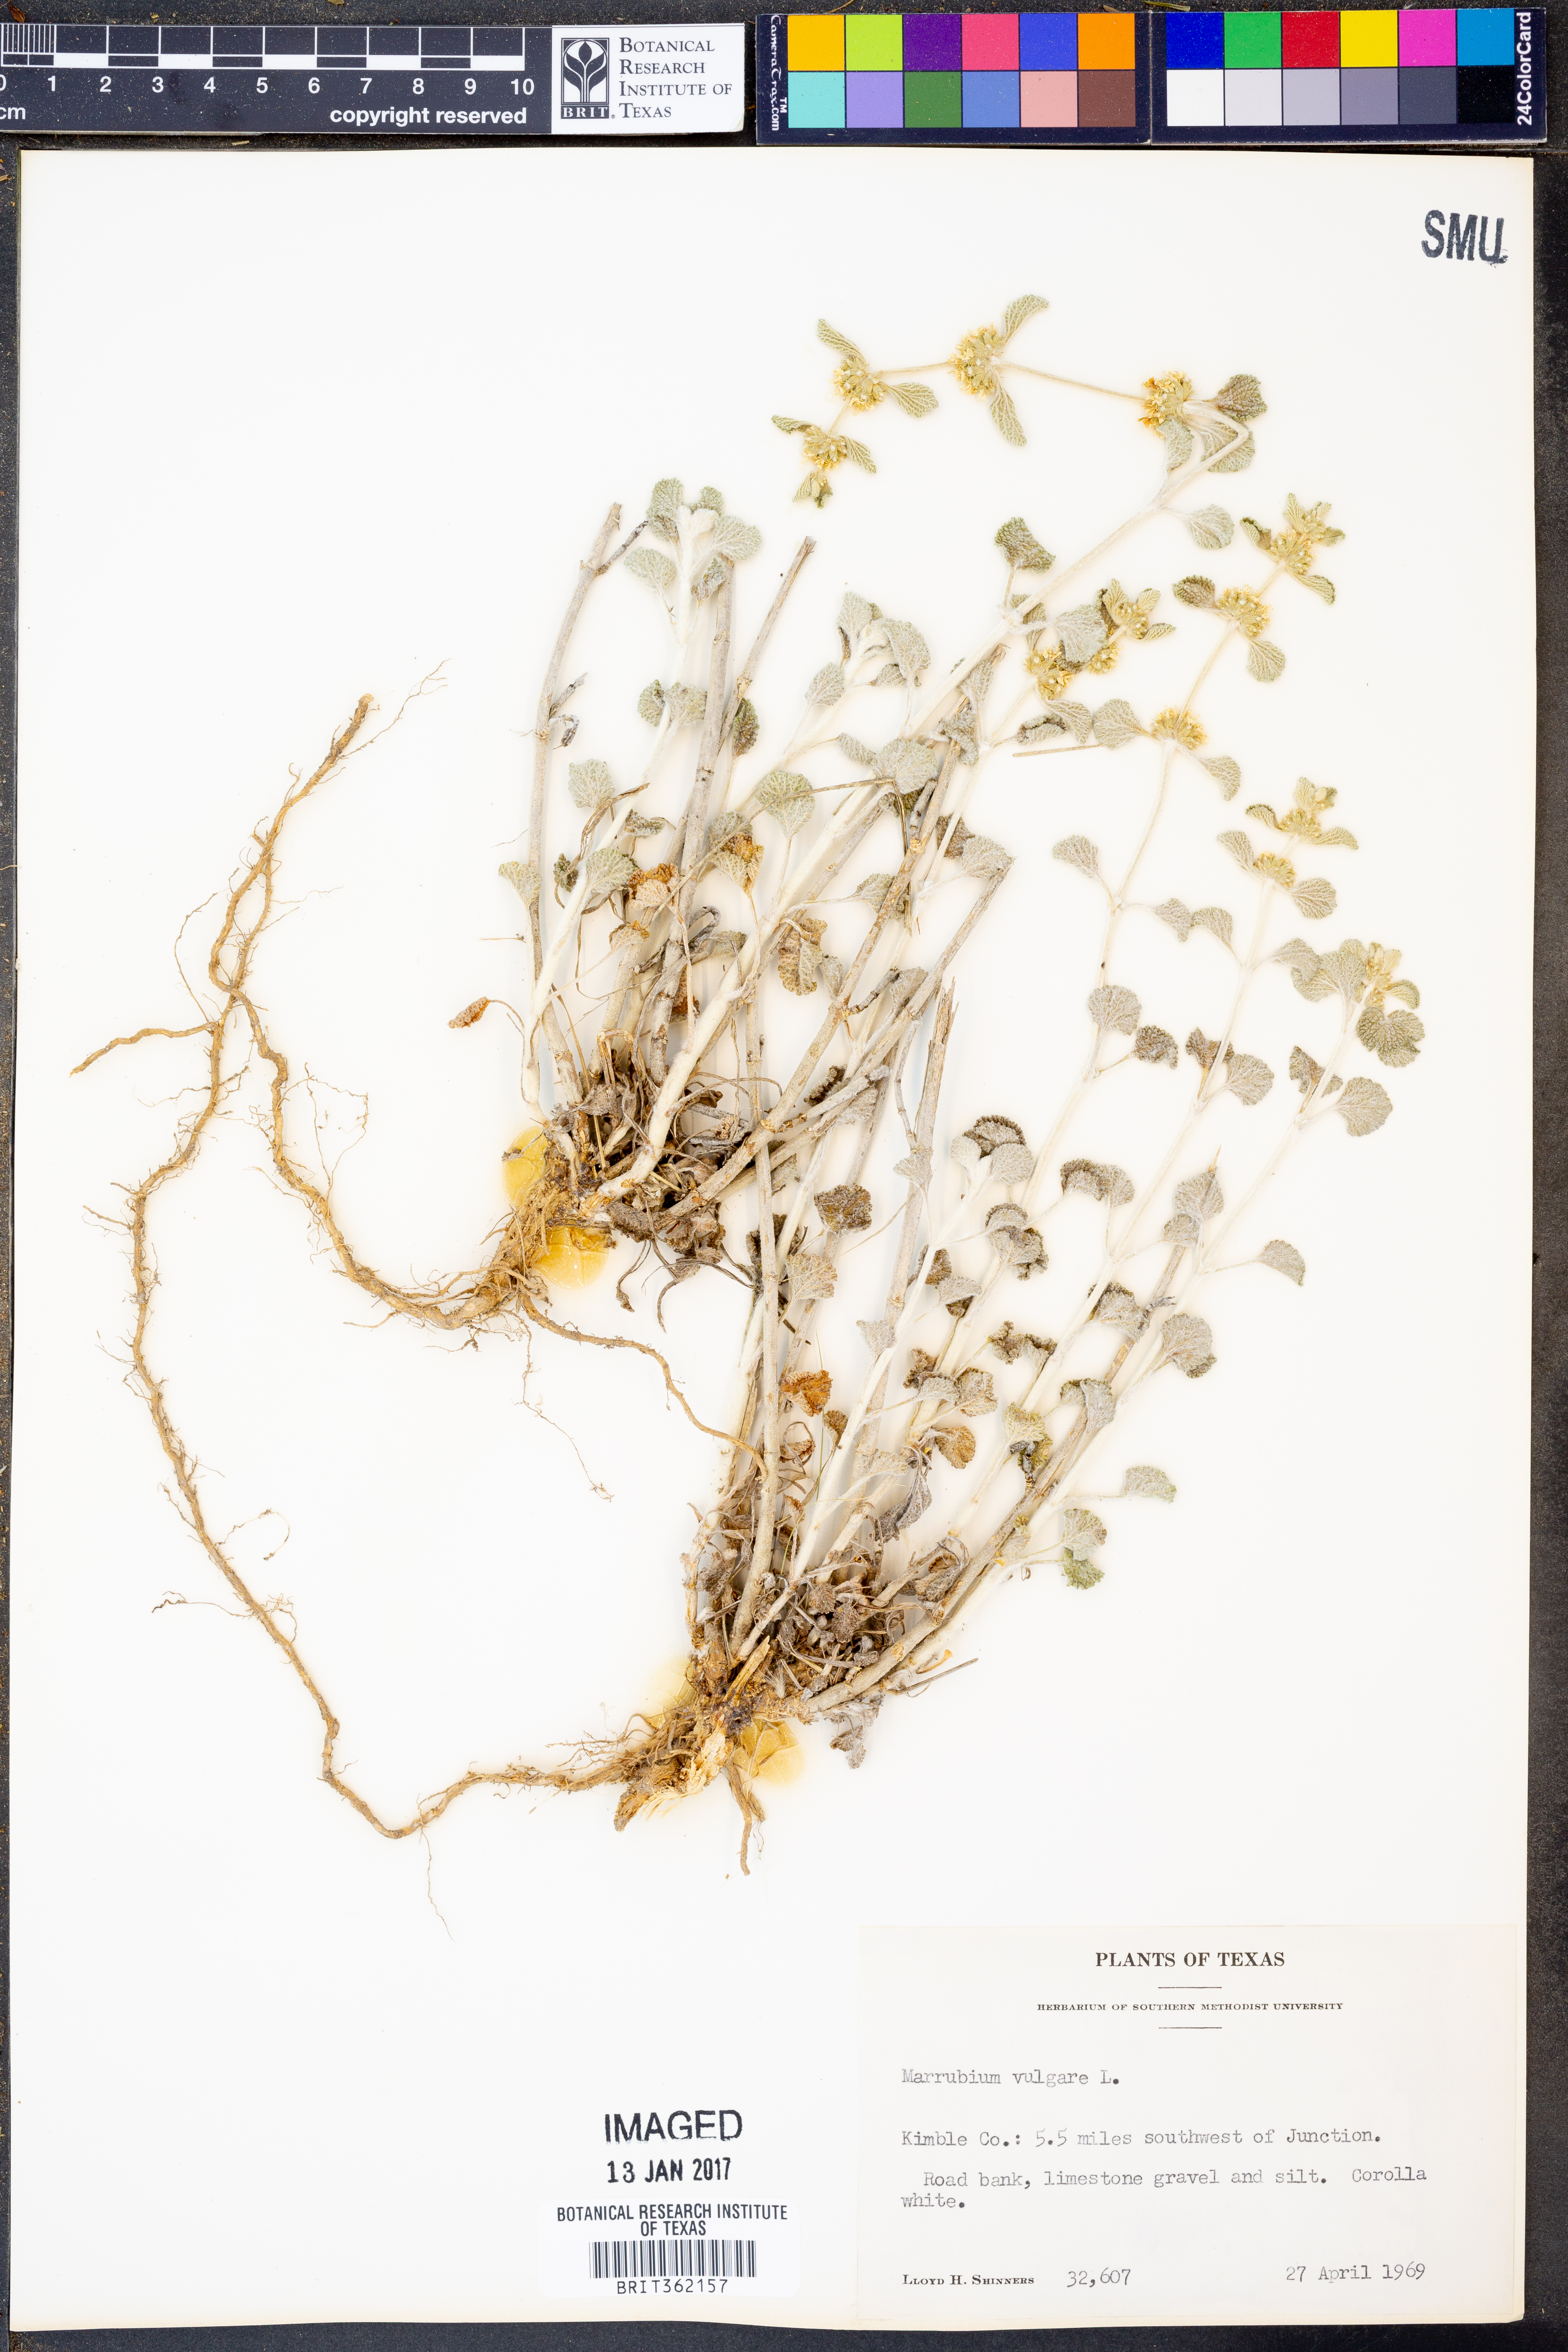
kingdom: Plantae
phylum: Tracheophyta
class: Magnoliopsida
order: Lamiales
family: Lamiaceae
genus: Marrubium
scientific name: Marrubium vulgare
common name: Horehound
